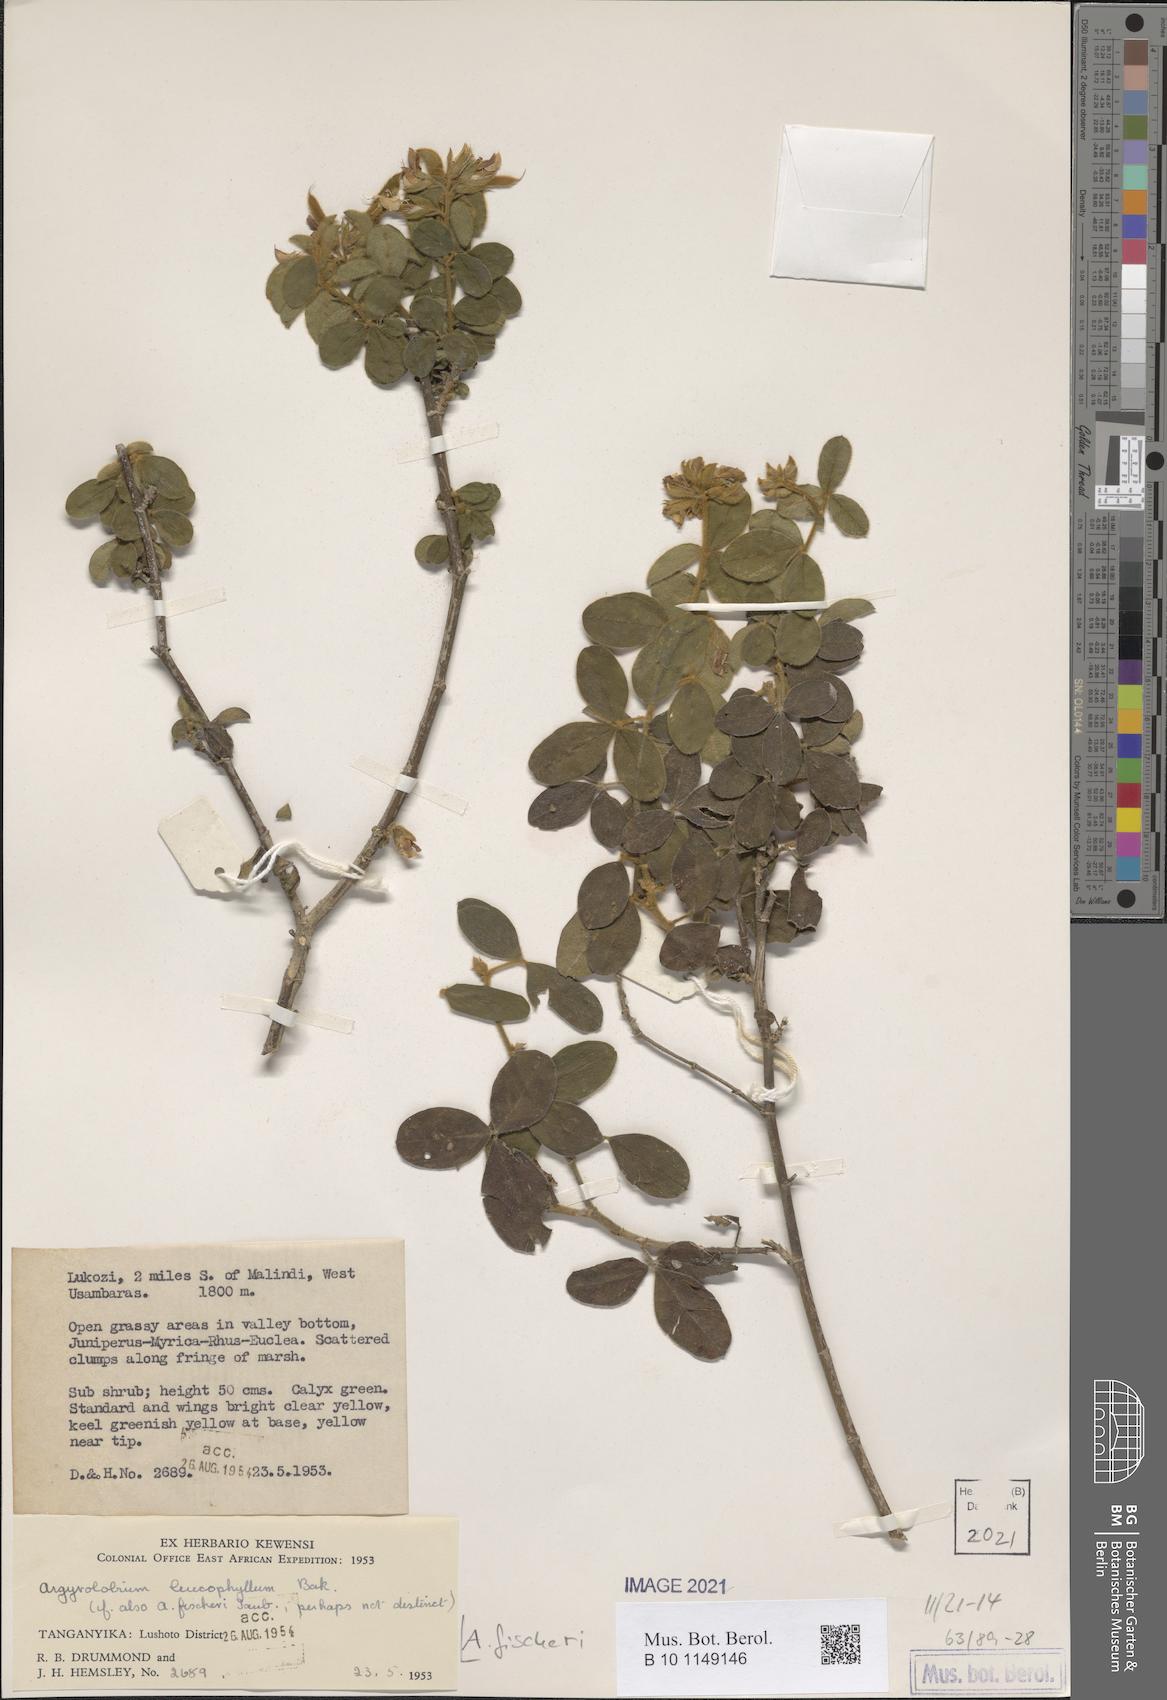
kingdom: Plantae
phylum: Tracheophyta
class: Magnoliopsida
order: Fabales
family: Fabaceae
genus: Argyrolobium
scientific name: Argyrolobium fischeri
